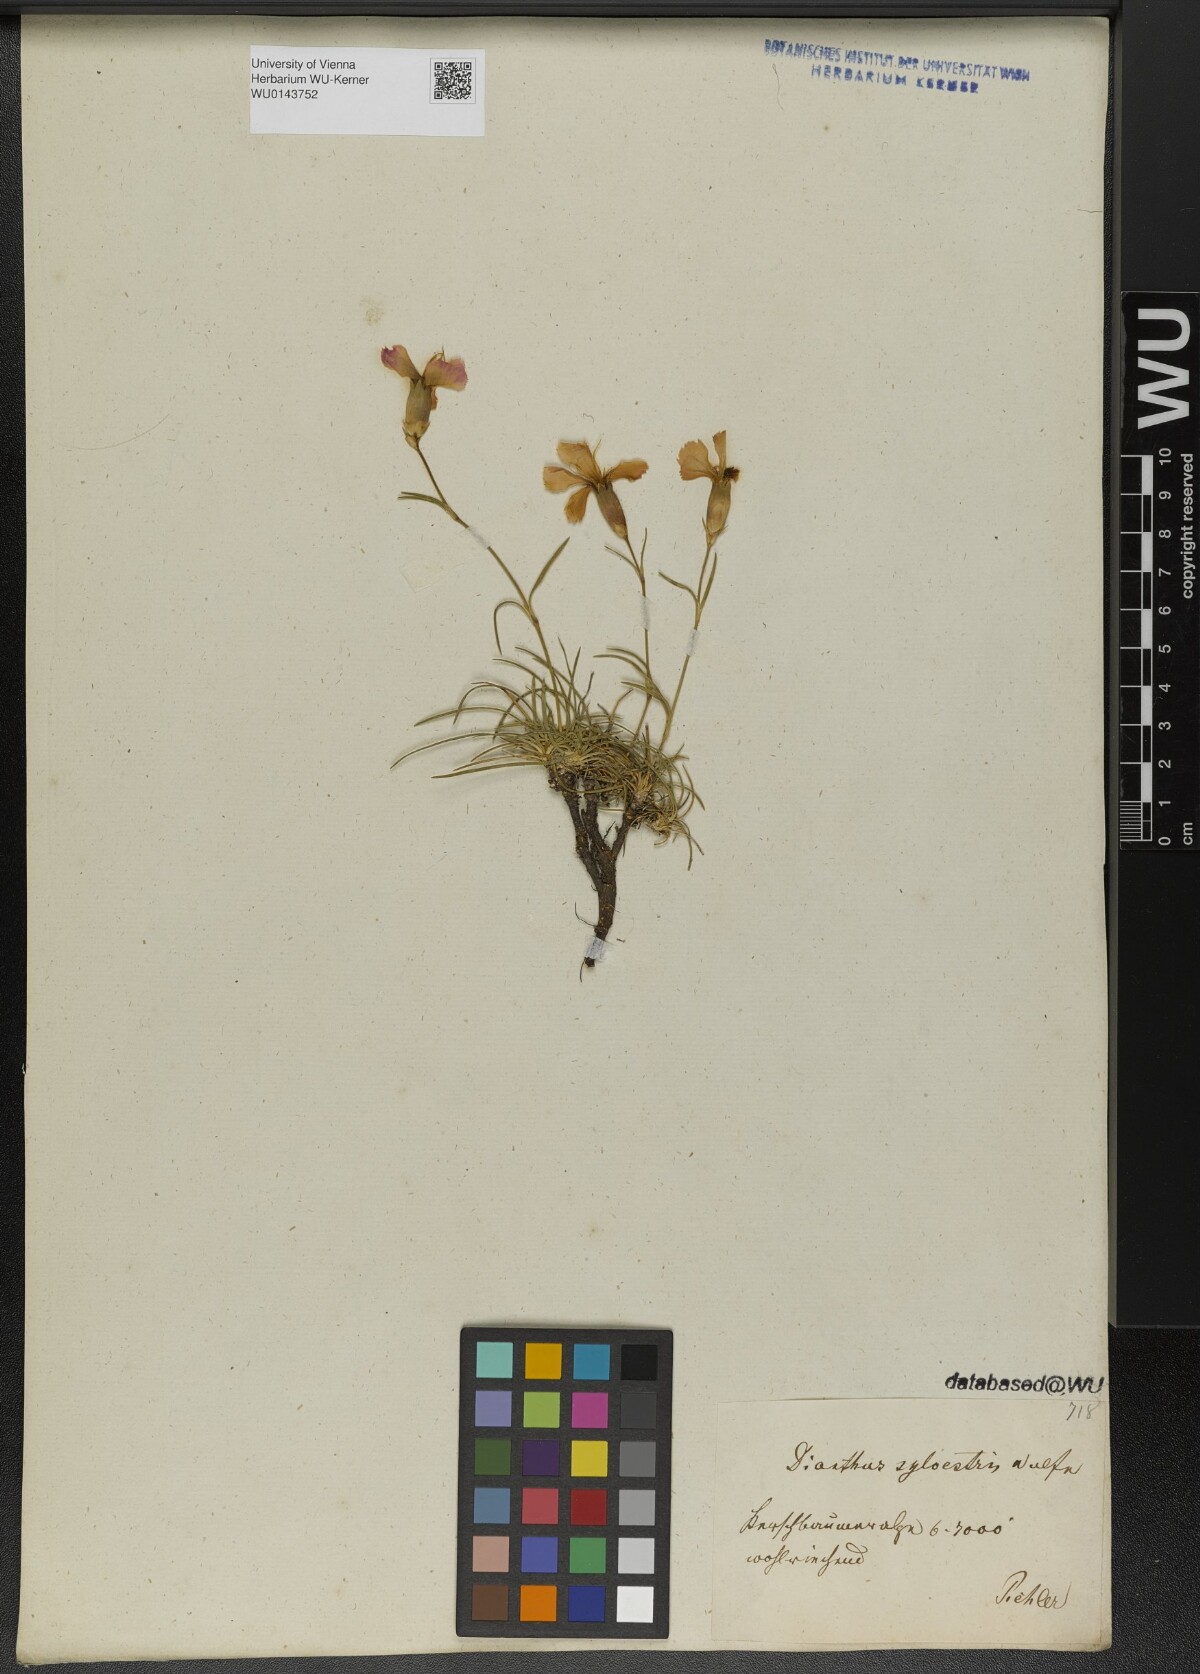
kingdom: Plantae
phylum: Tracheophyta
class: Magnoliopsida
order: Caryophyllales
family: Caryophyllaceae
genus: Dianthus
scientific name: Dianthus sylvestris
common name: Wood pink
